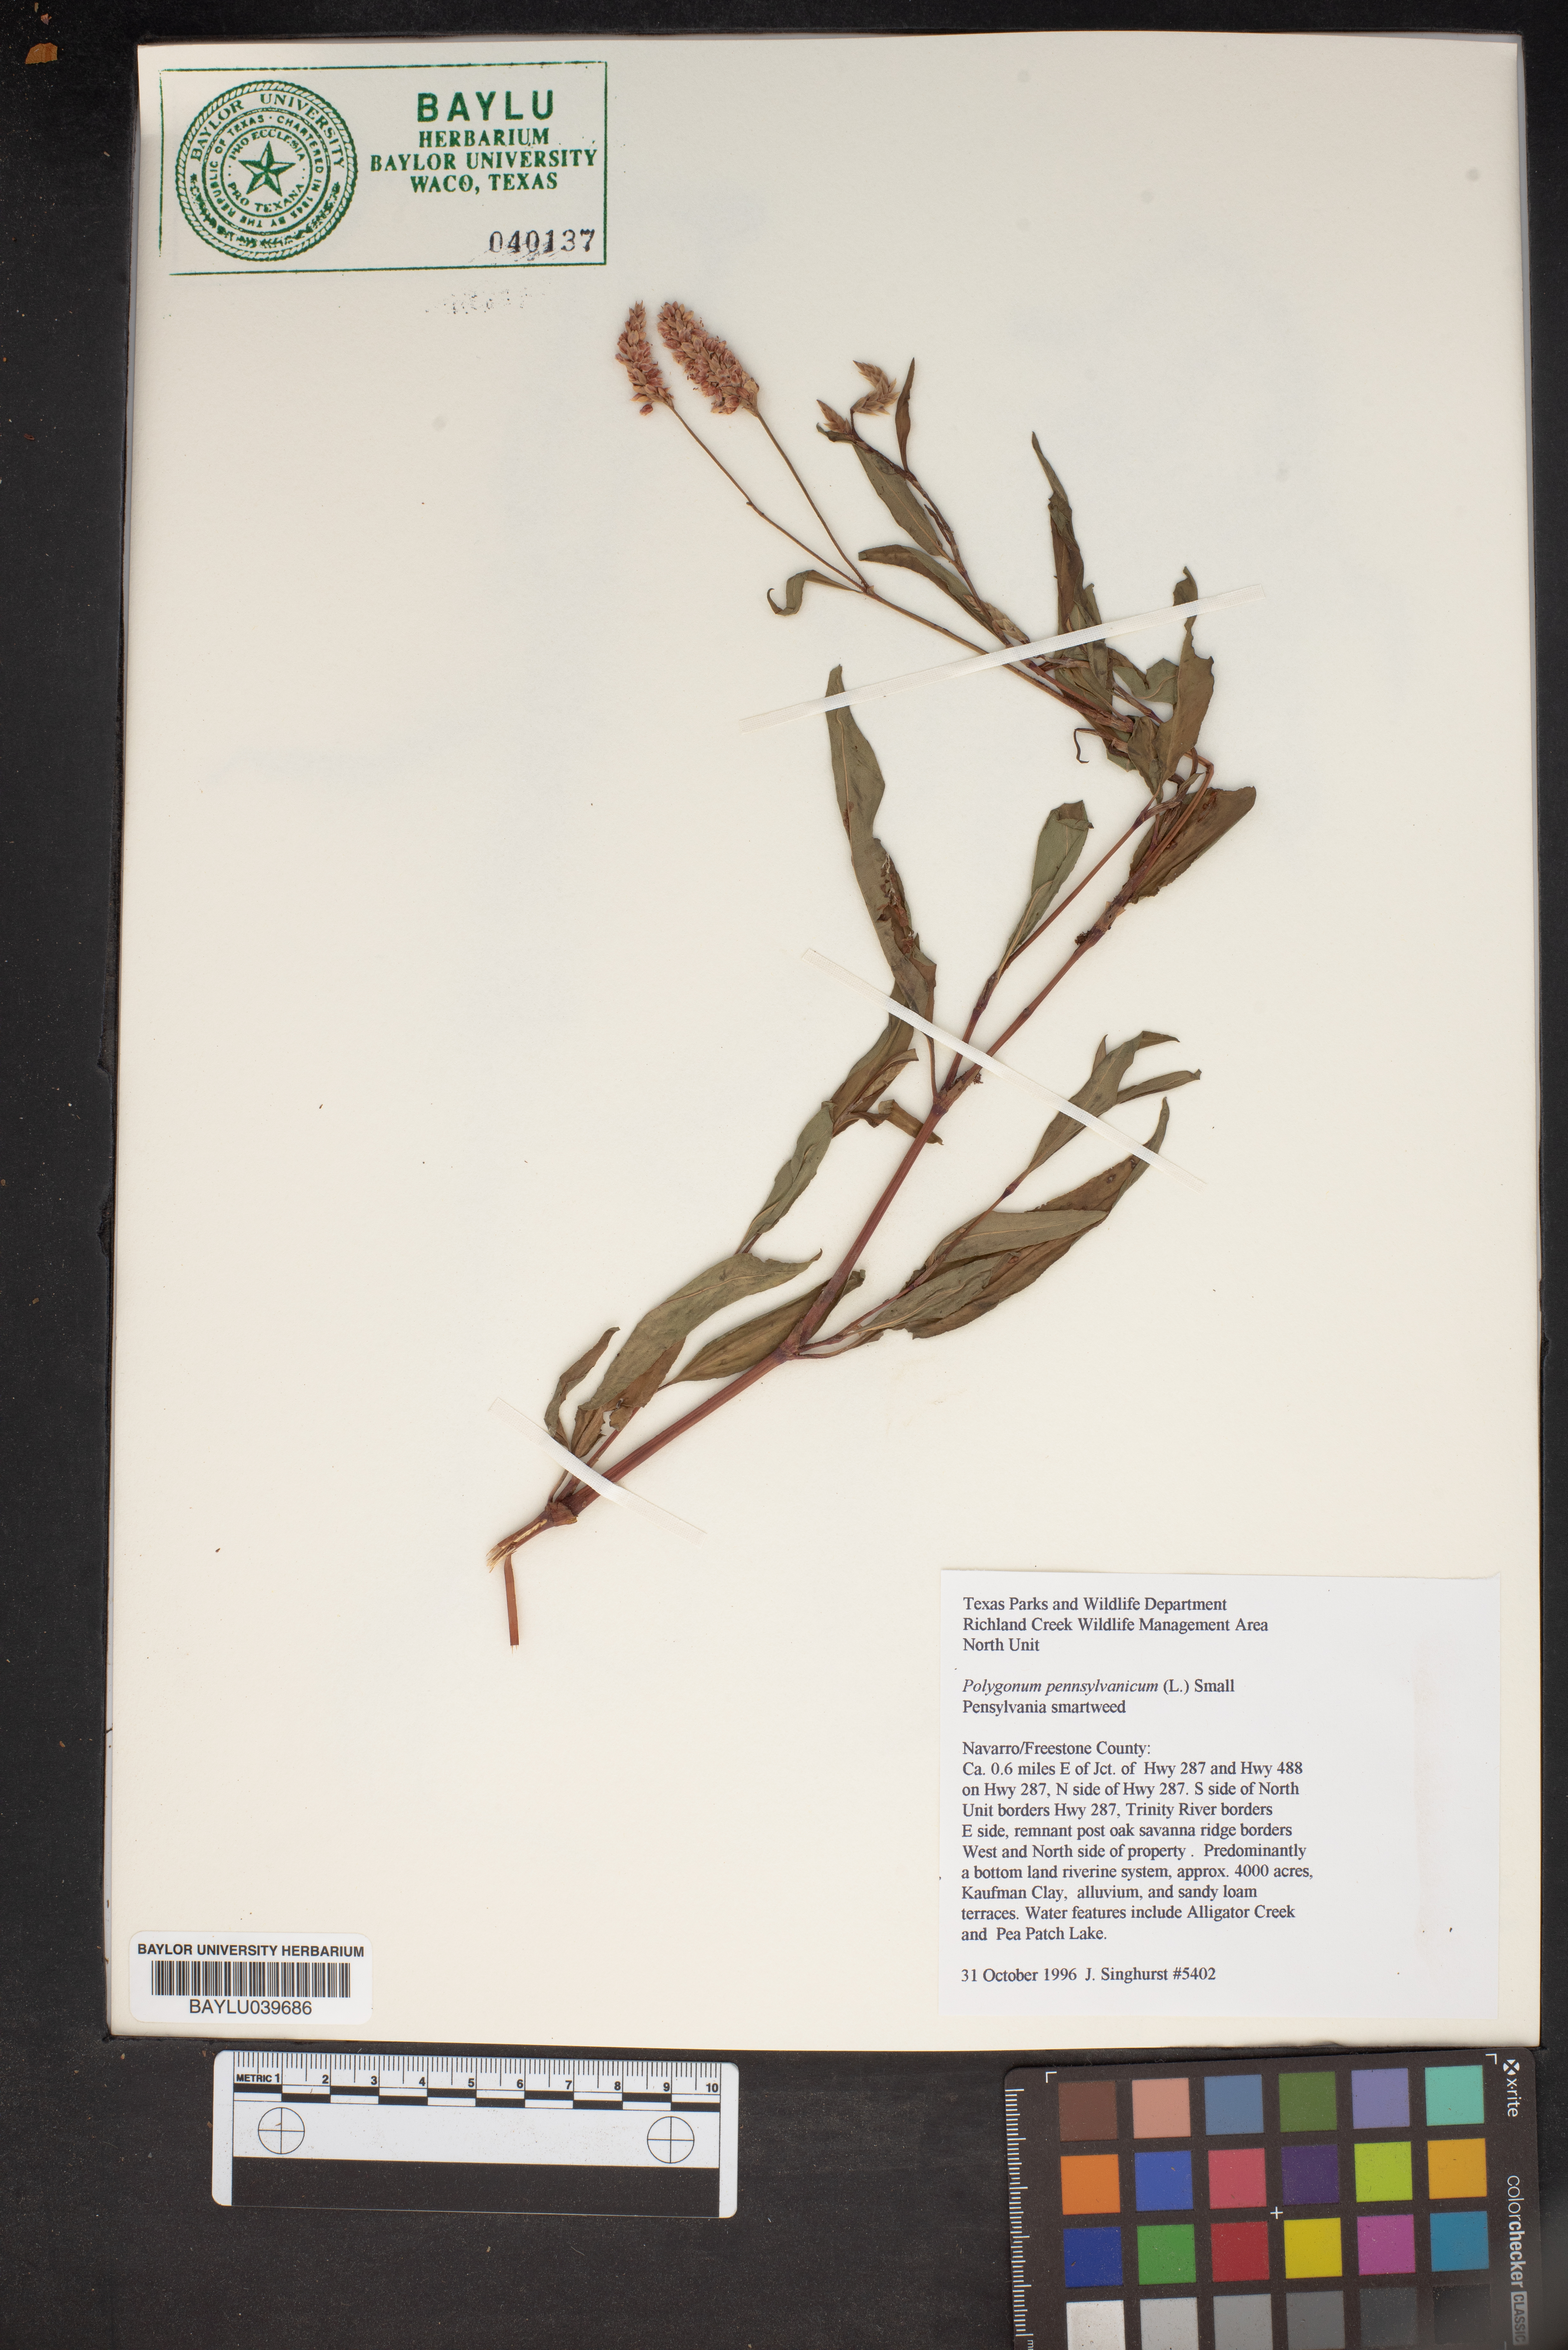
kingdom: Plantae
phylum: Tracheophyta
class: Magnoliopsida
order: Caryophyllales
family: Polygonaceae
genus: Persicaria
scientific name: Persicaria pensylvanica
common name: Pinkweed
